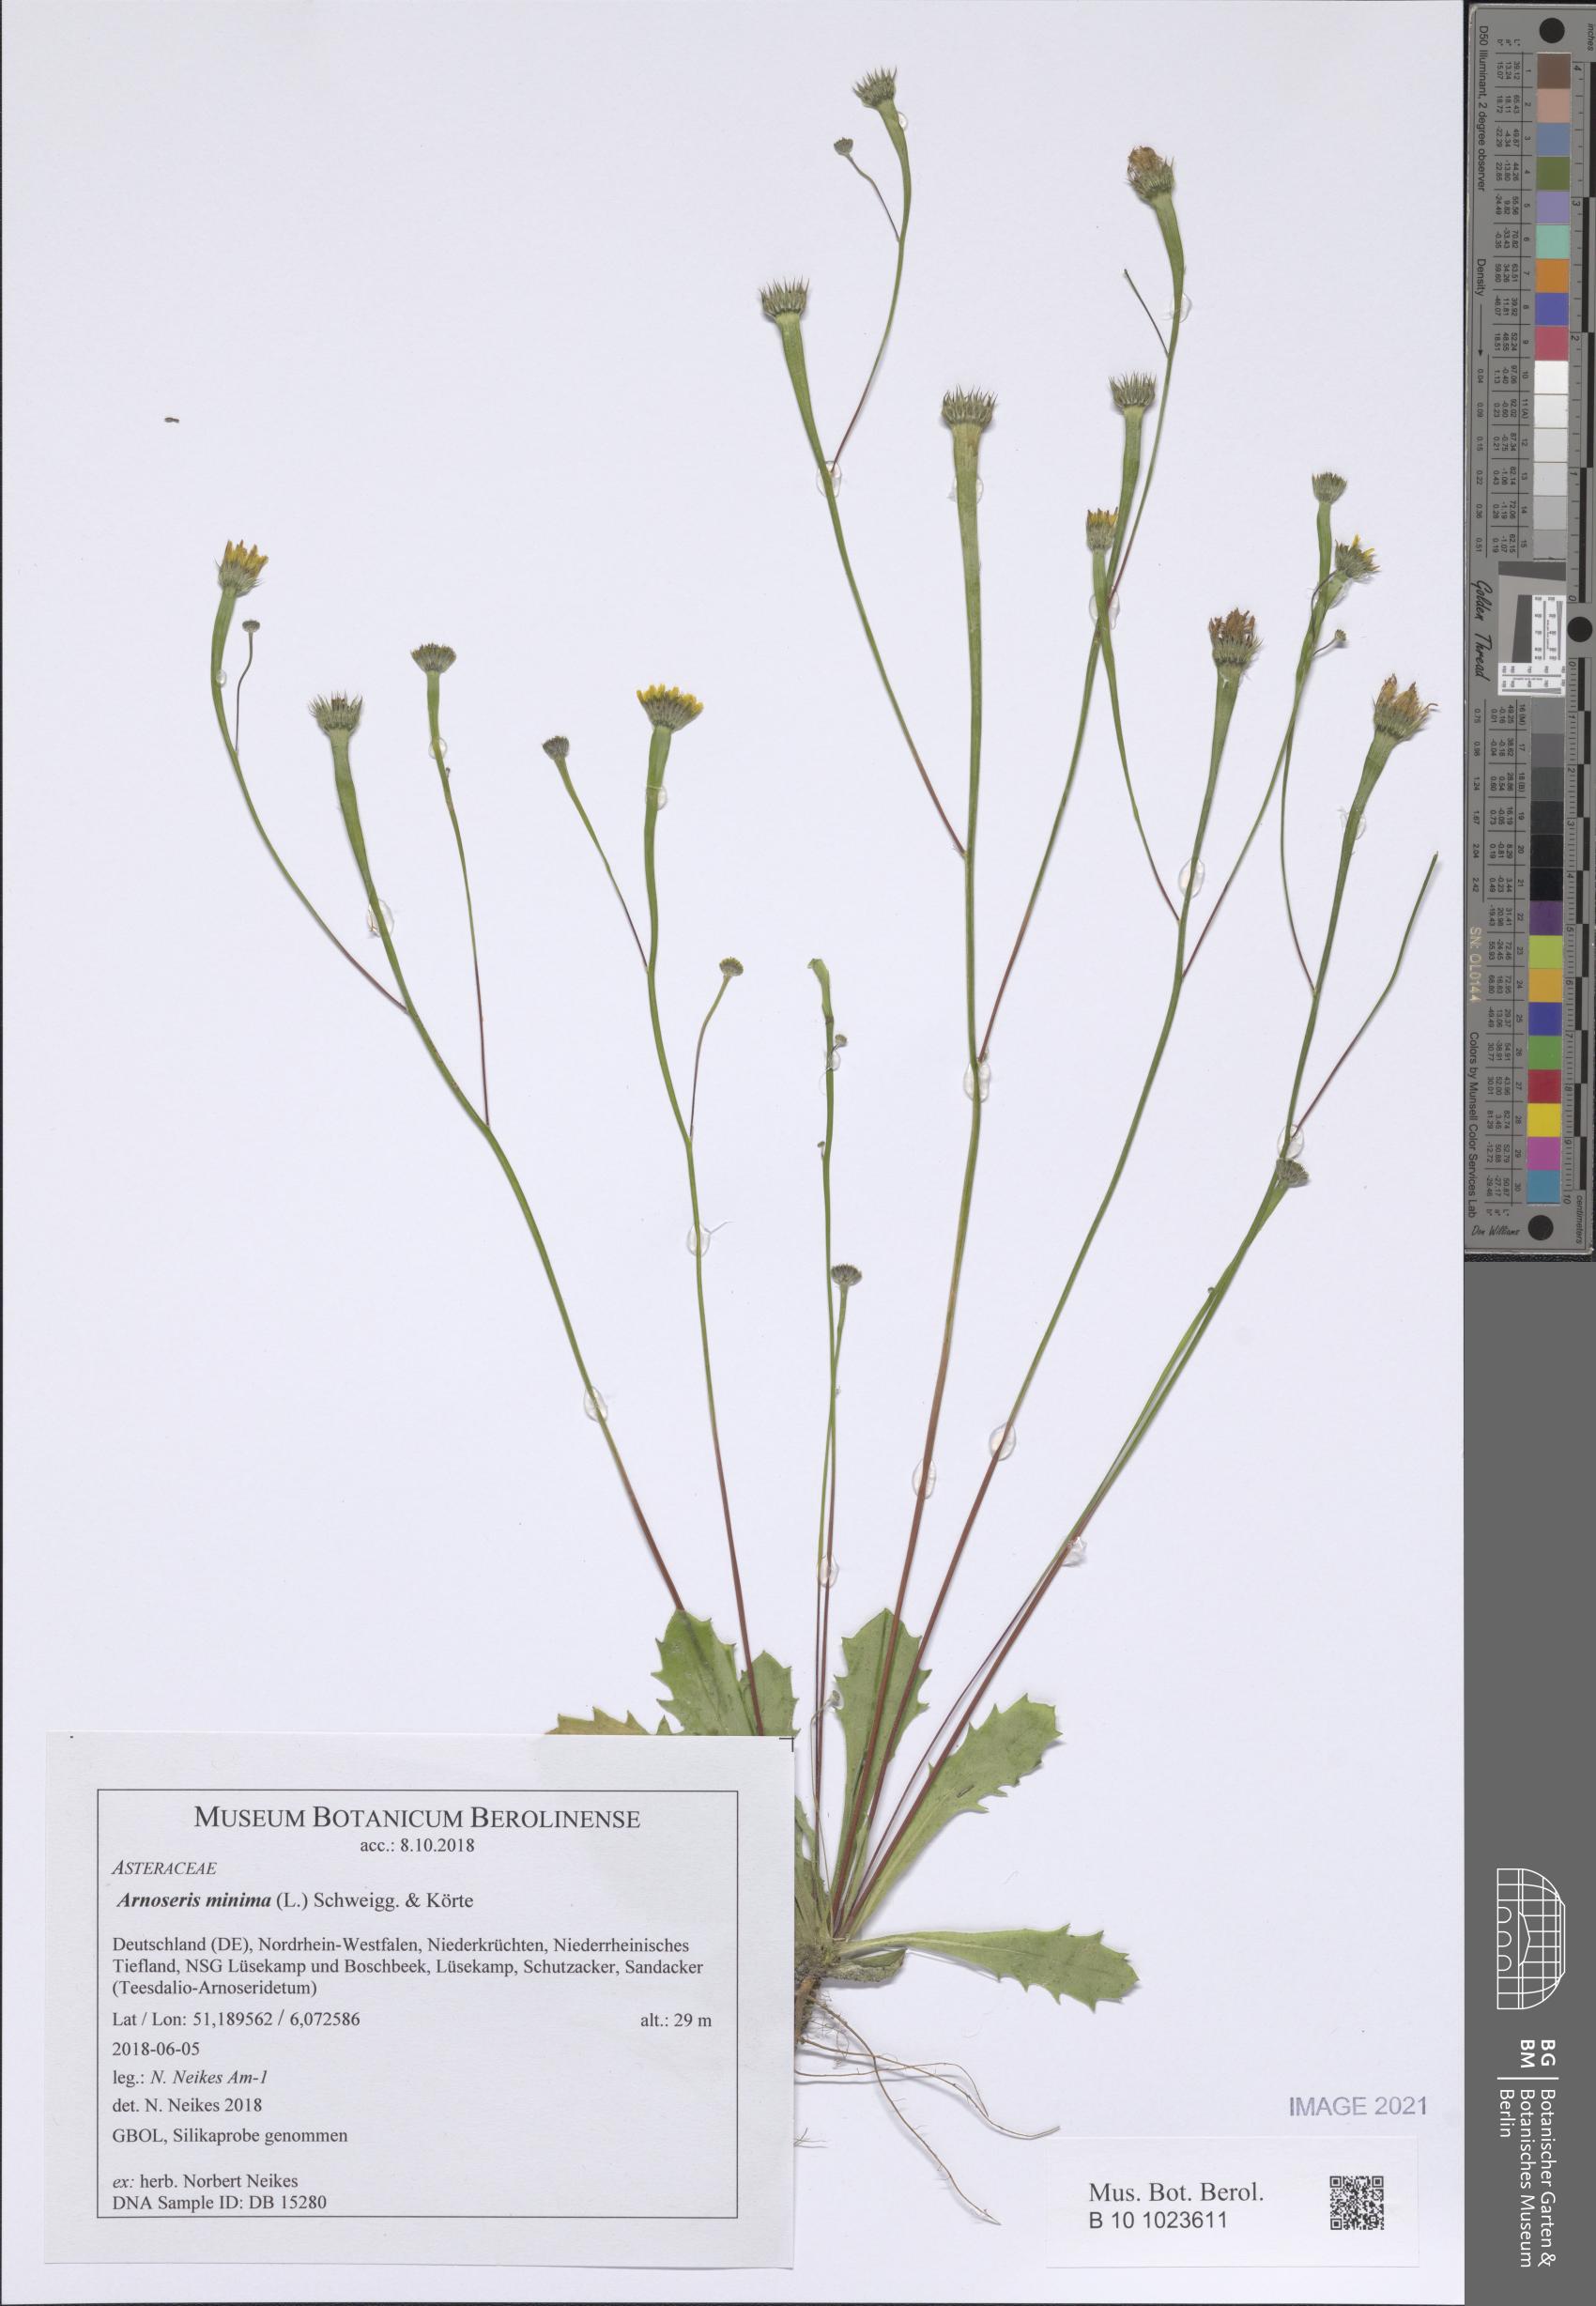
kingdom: Plantae
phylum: Tracheophyta
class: Magnoliopsida
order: Asterales
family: Asteraceae
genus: Arnoseris
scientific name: Arnoseris minima
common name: Lamb's succory
